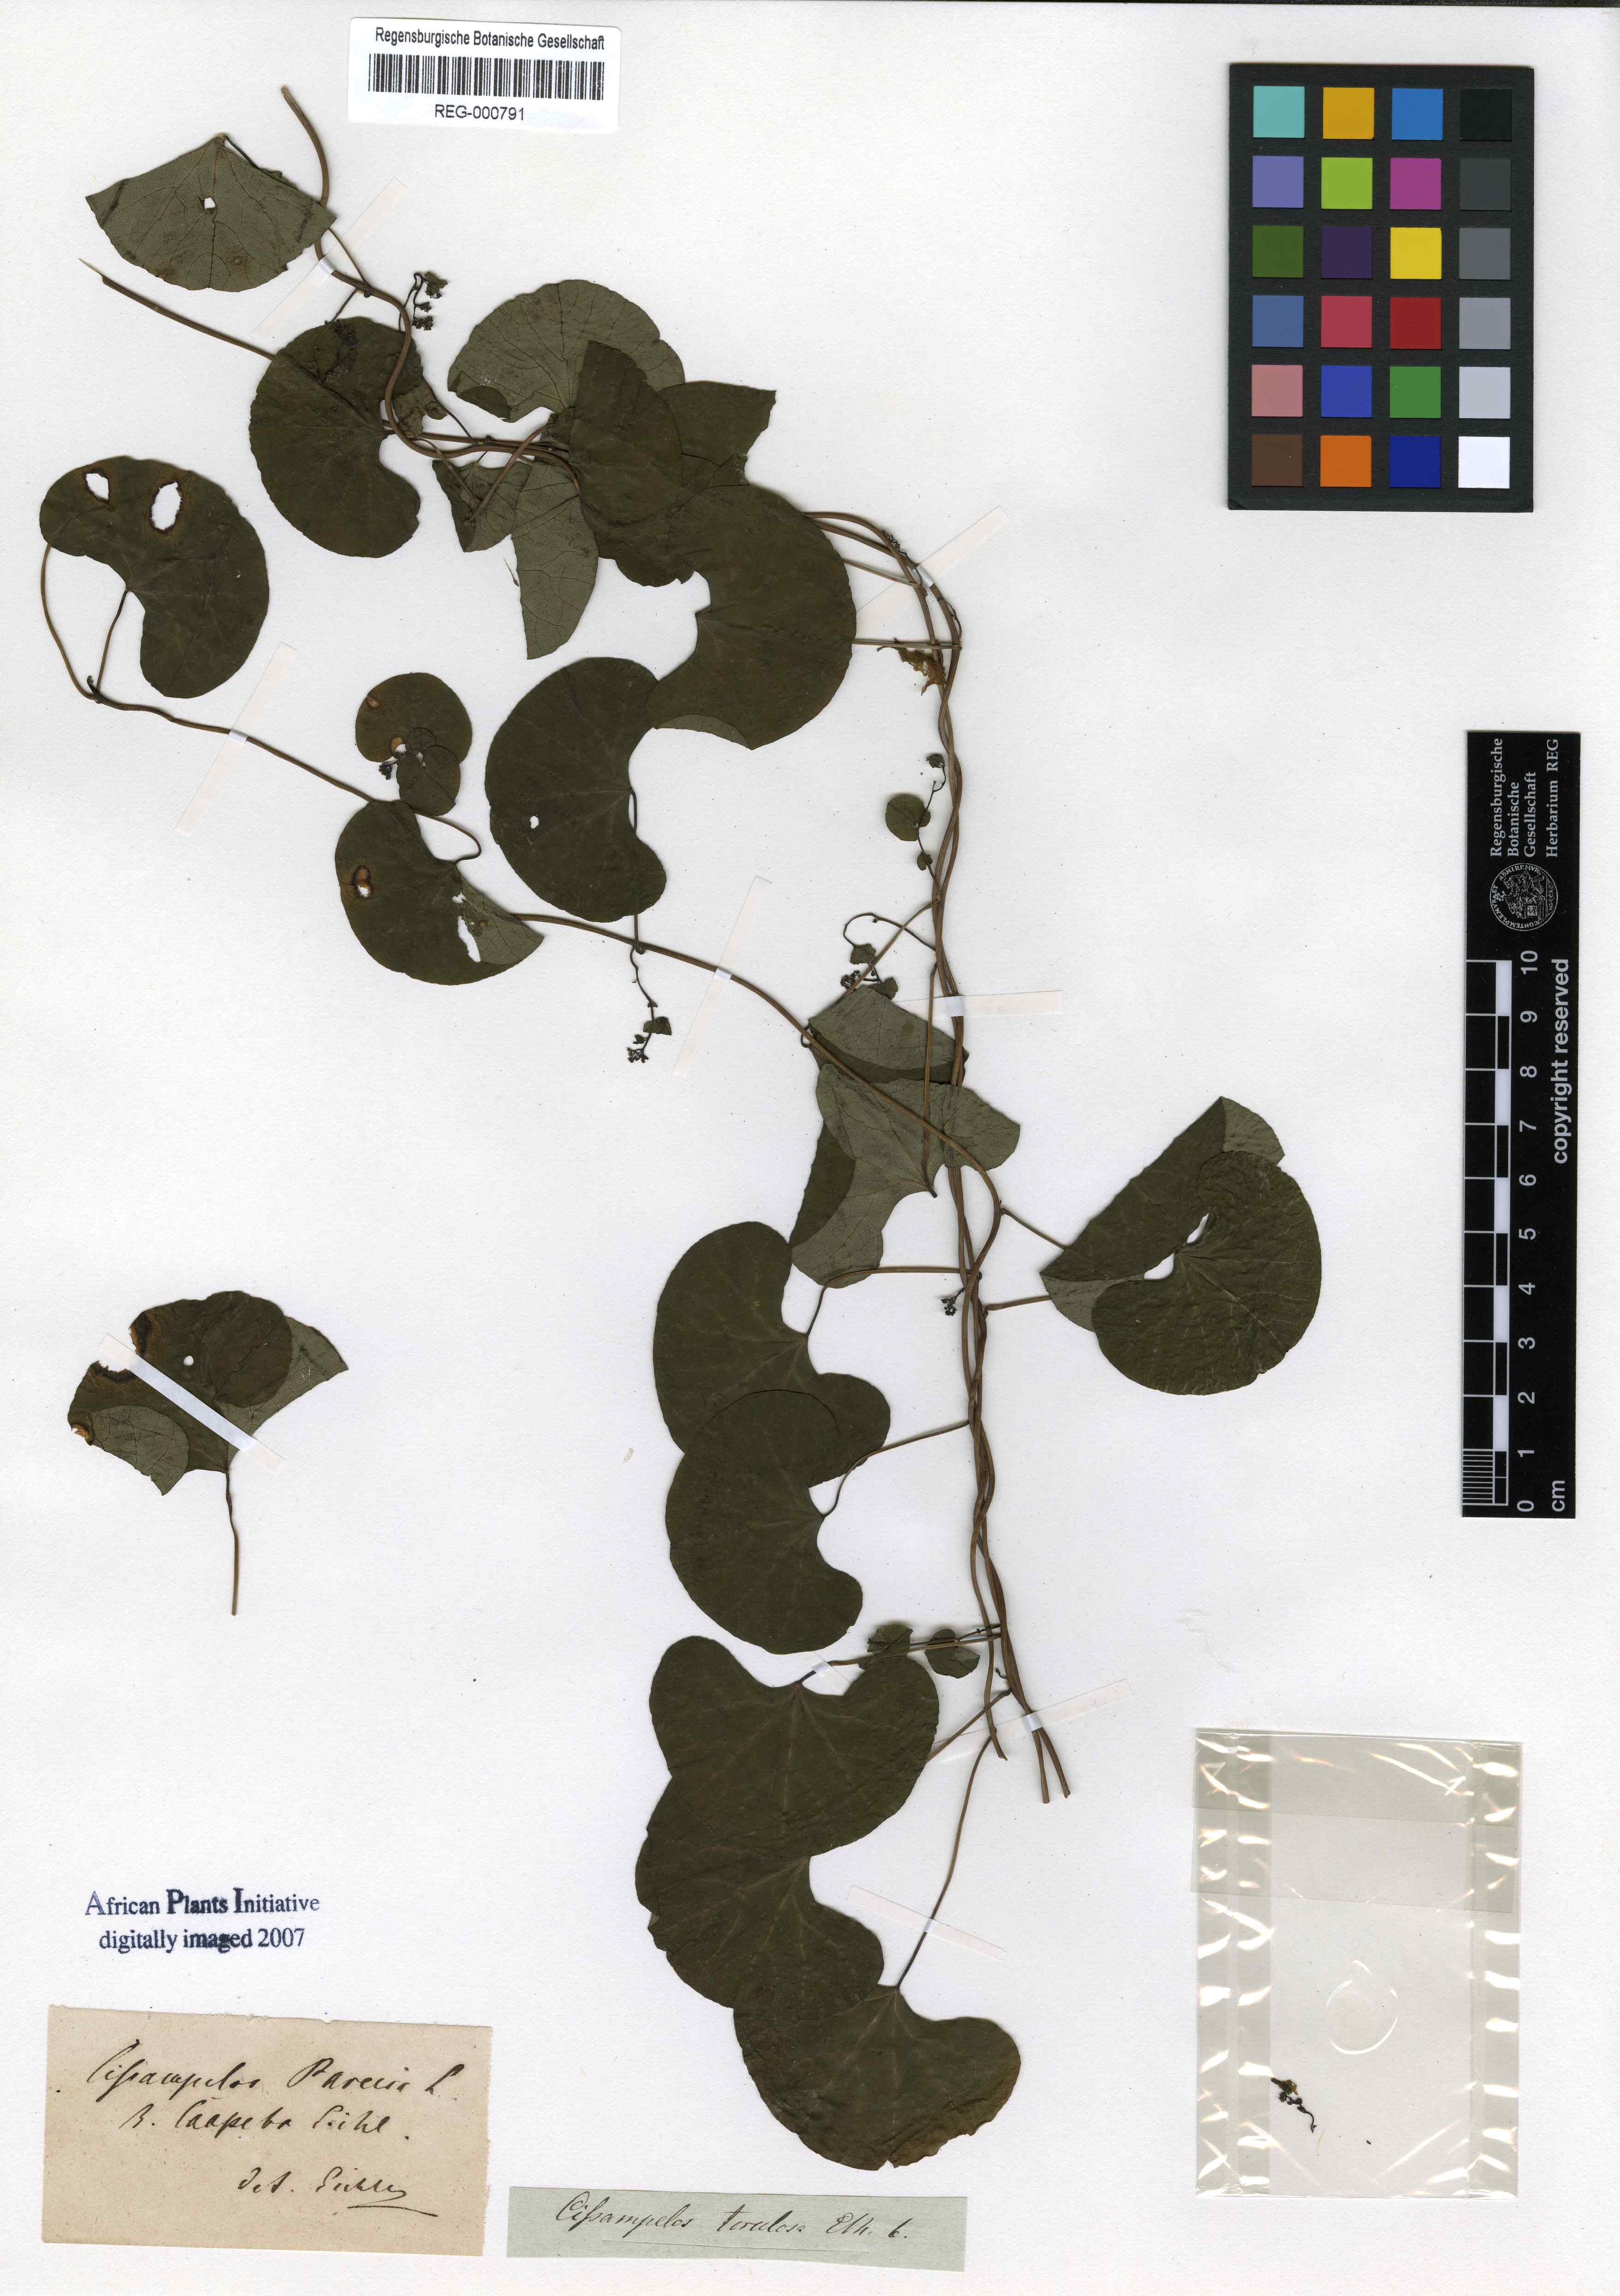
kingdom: Plantae
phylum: Tracheophyta
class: Magnoliopsida
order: Ranunculales
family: Menispermaceae
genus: Cissampelos
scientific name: Cissampelos torulosa
